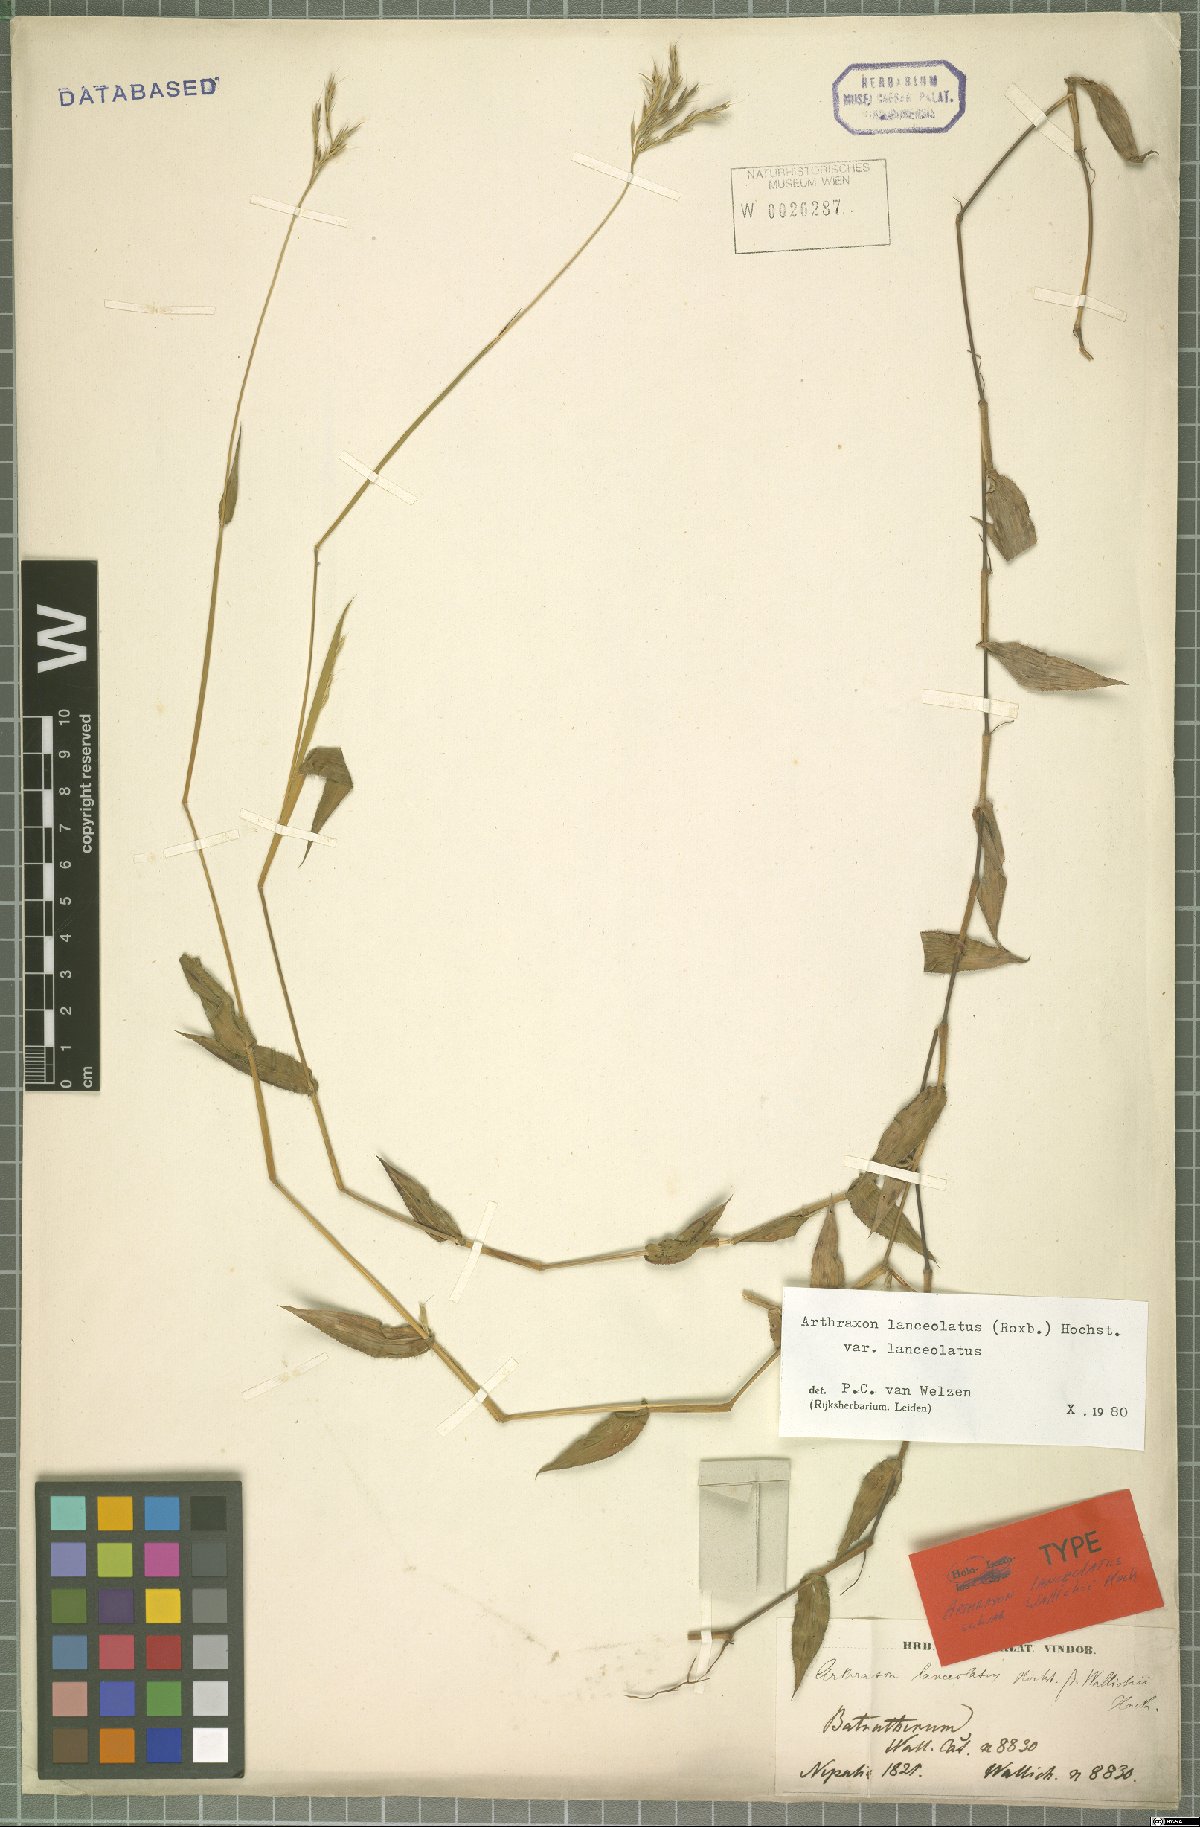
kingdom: Plantae
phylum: Tracheophyta
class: Liliopsida
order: Poales
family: Poaceae
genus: Arthraxon
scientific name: Arthraxon lanceolatus
